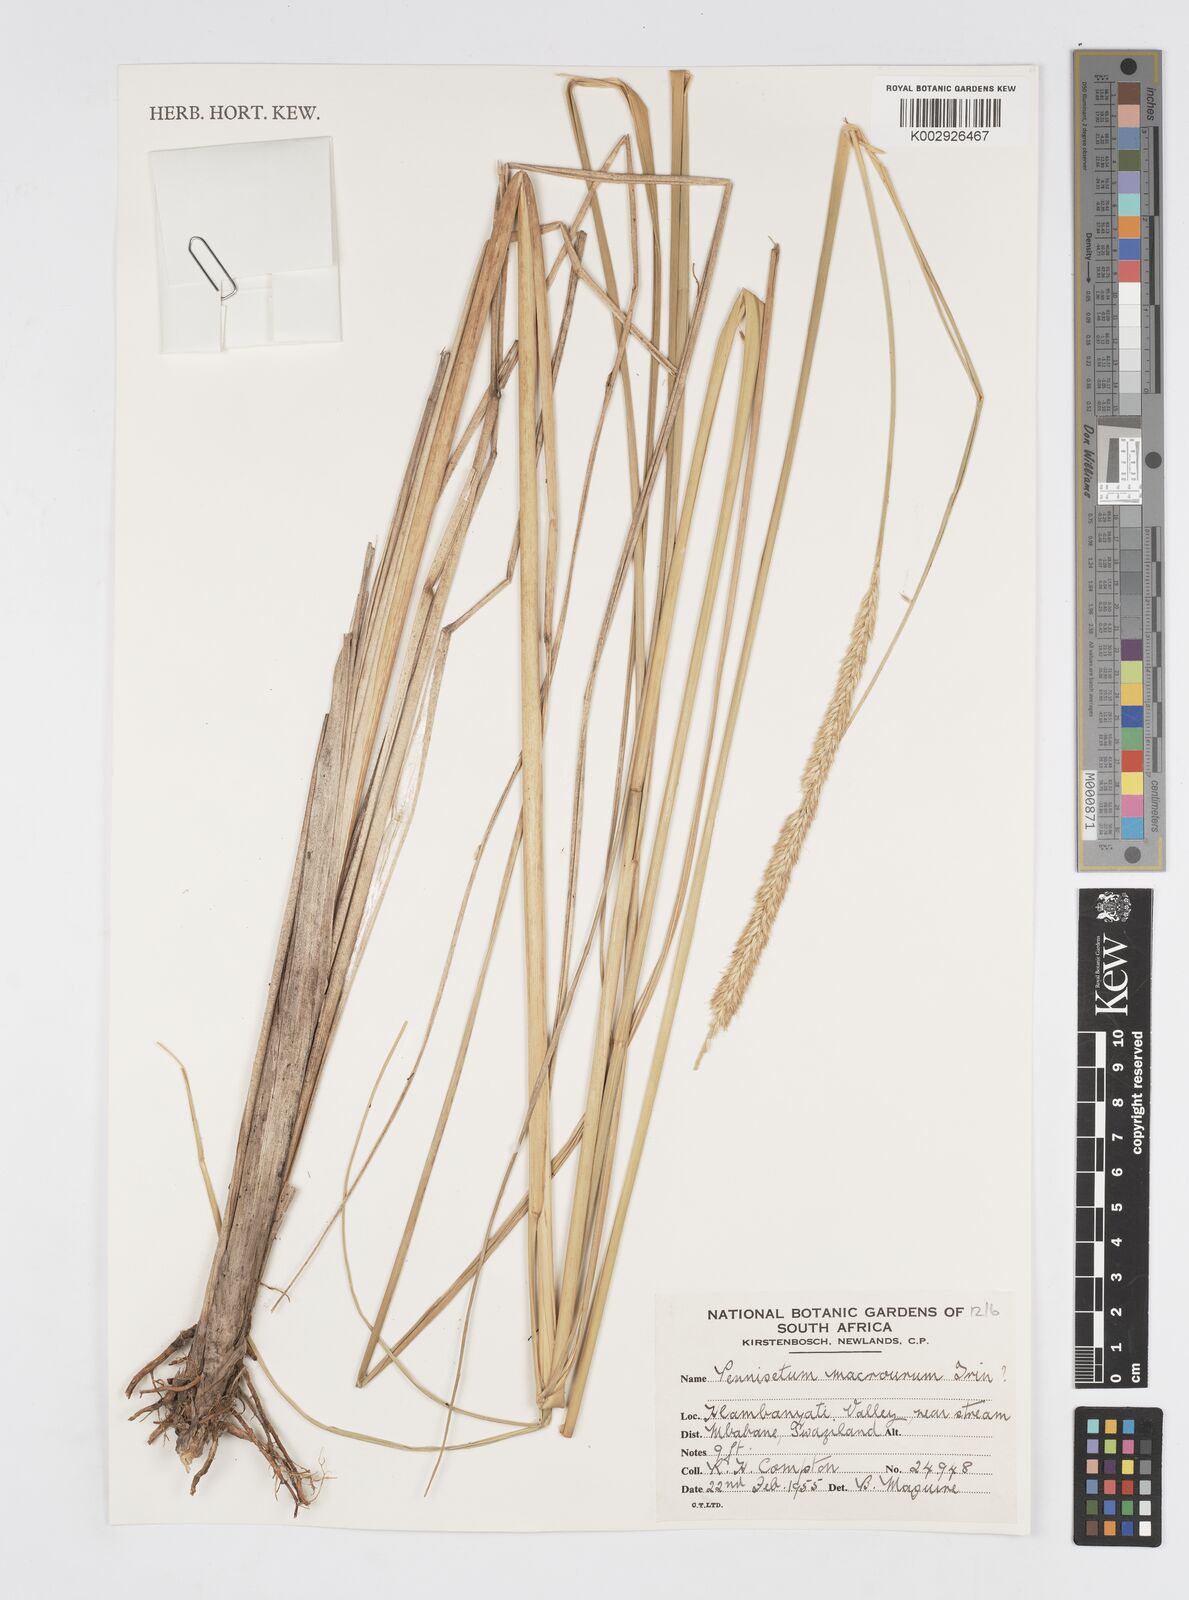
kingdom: Plantae
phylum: Tracheophyta
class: Liliopsida
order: Poales
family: Poaceae
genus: Cenchrus
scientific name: Cenchrus caudatus
